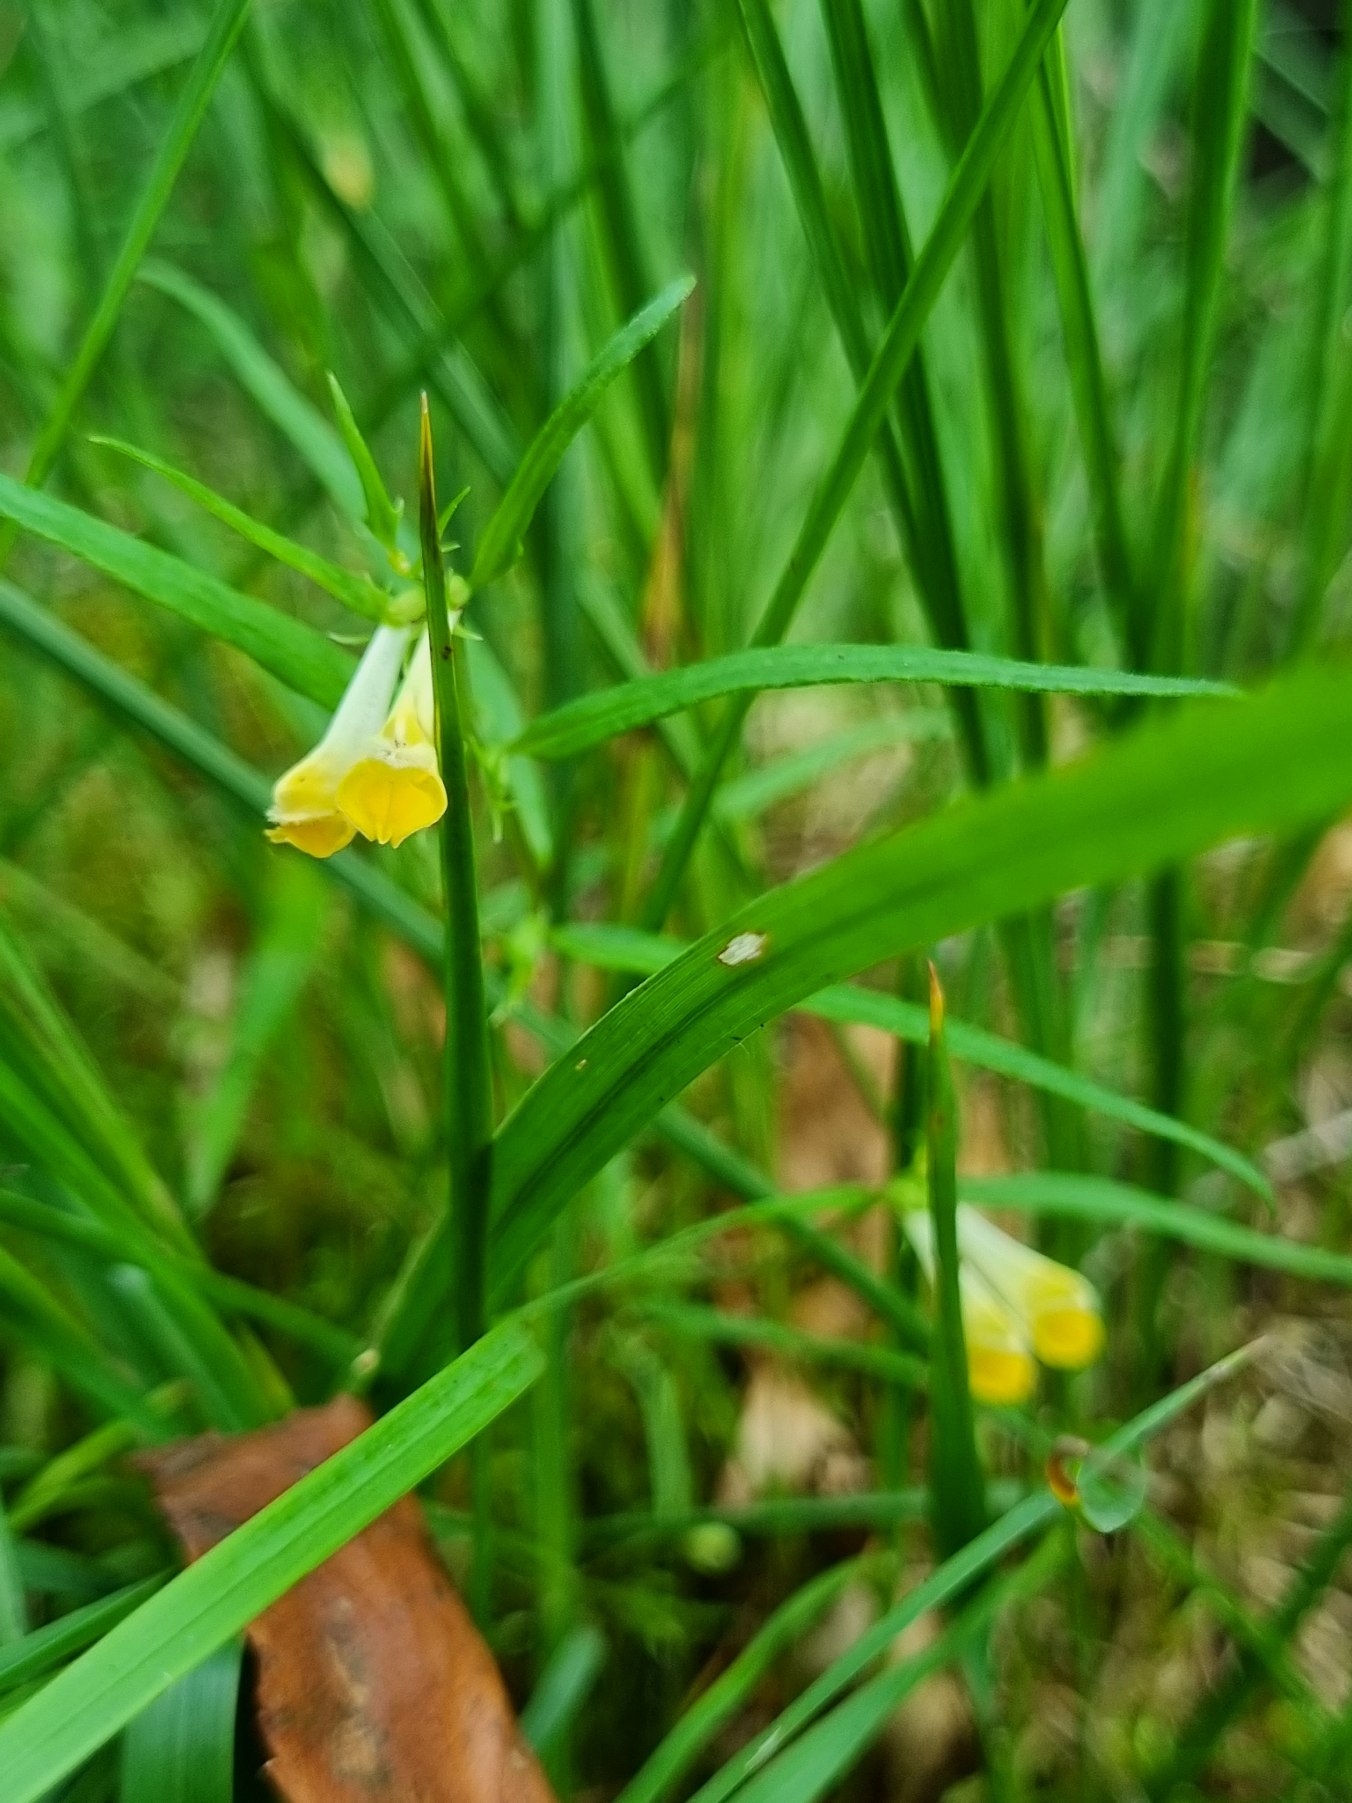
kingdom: Plantae
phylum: Tracheophyta
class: Magnoliopsida
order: Lamiales
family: Orobanchaceae
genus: Melampyrum
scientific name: Melampyrum pratense
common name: Almindelig kohvede
